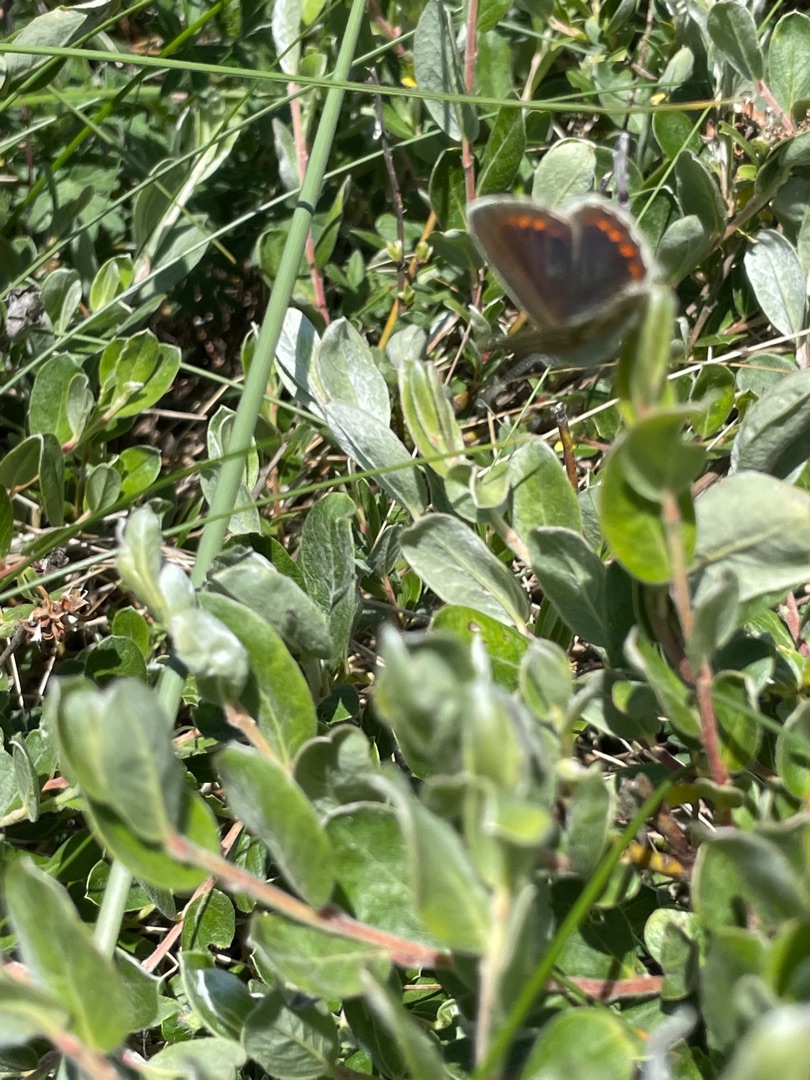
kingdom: Animalia
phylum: Arthropoda
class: Insecta
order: Lepidoptera
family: Lycaenidae
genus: Aricia
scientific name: Aricia artaxerxes
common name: Sortbrun blåfugl
